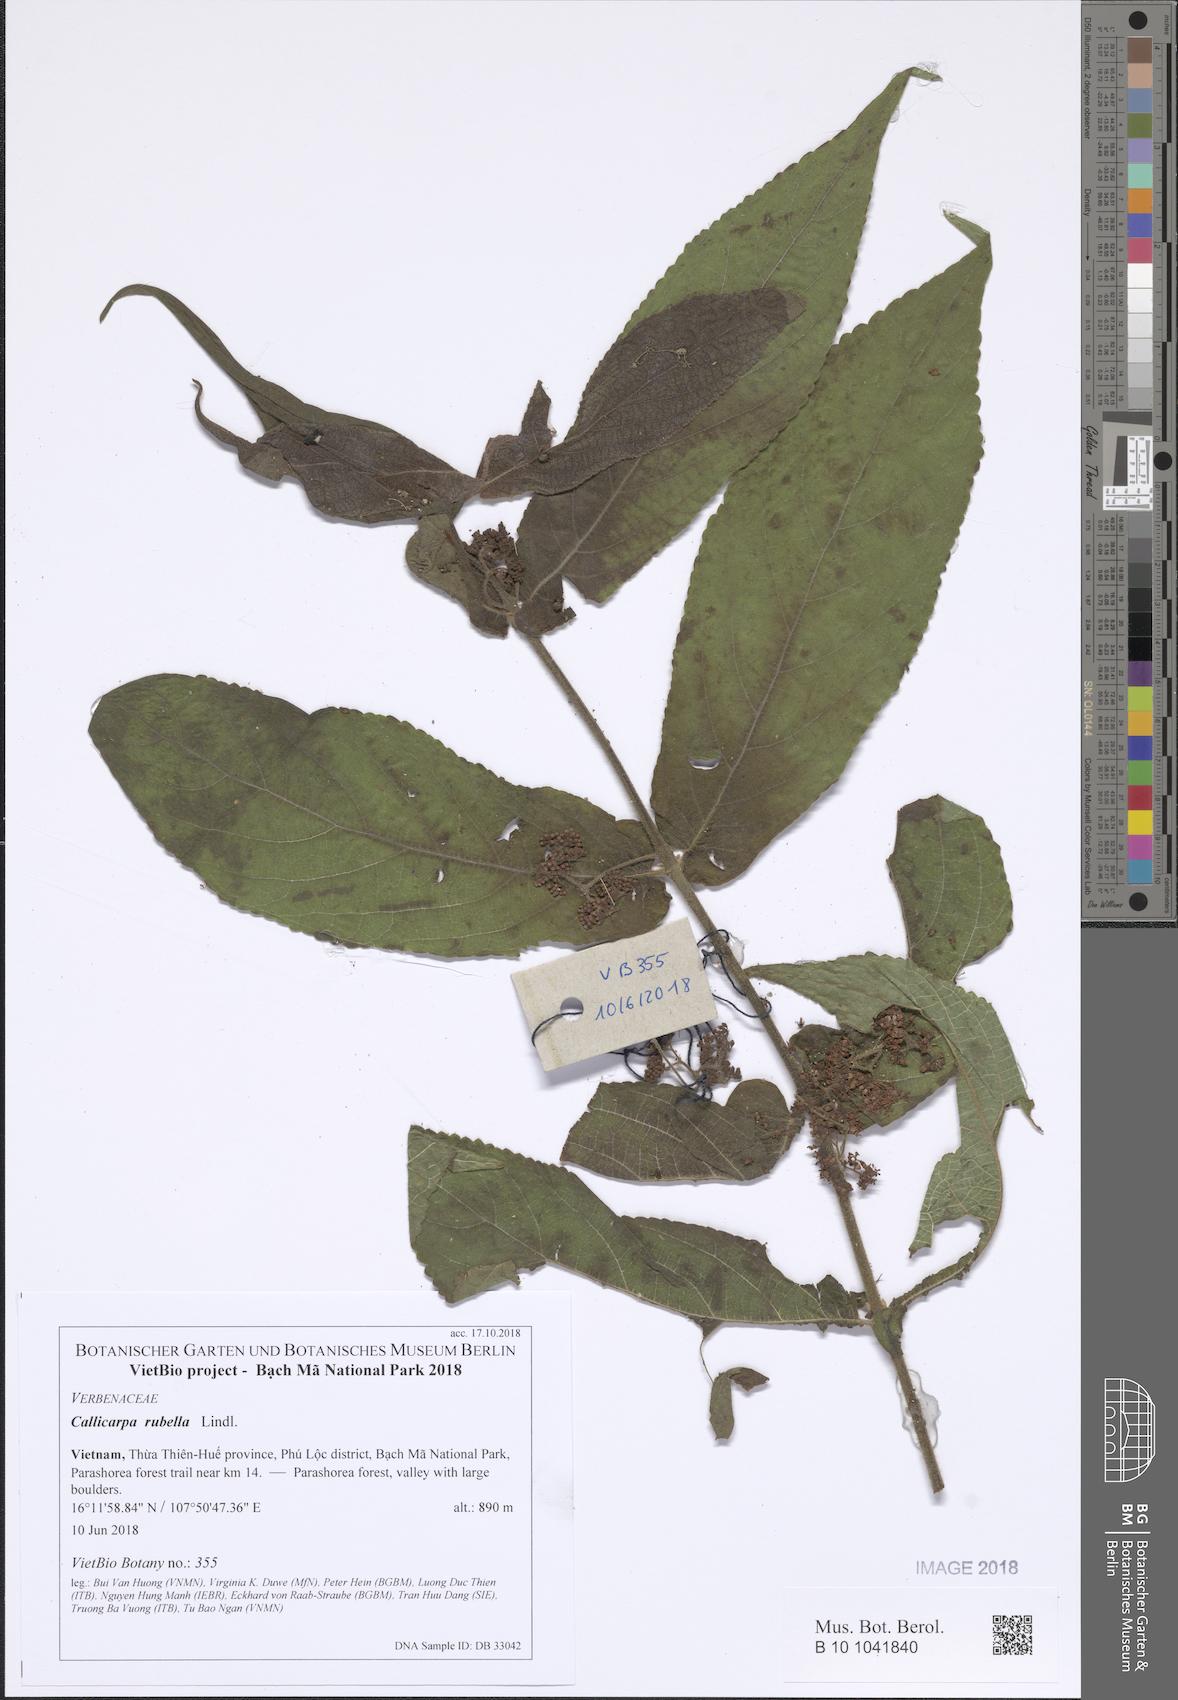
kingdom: Plantae
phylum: Tracheophyta
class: Magnoliopsida
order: Lamiales
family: Lamiaceae
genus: Callicarpa
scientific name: Callicarpa rubella
